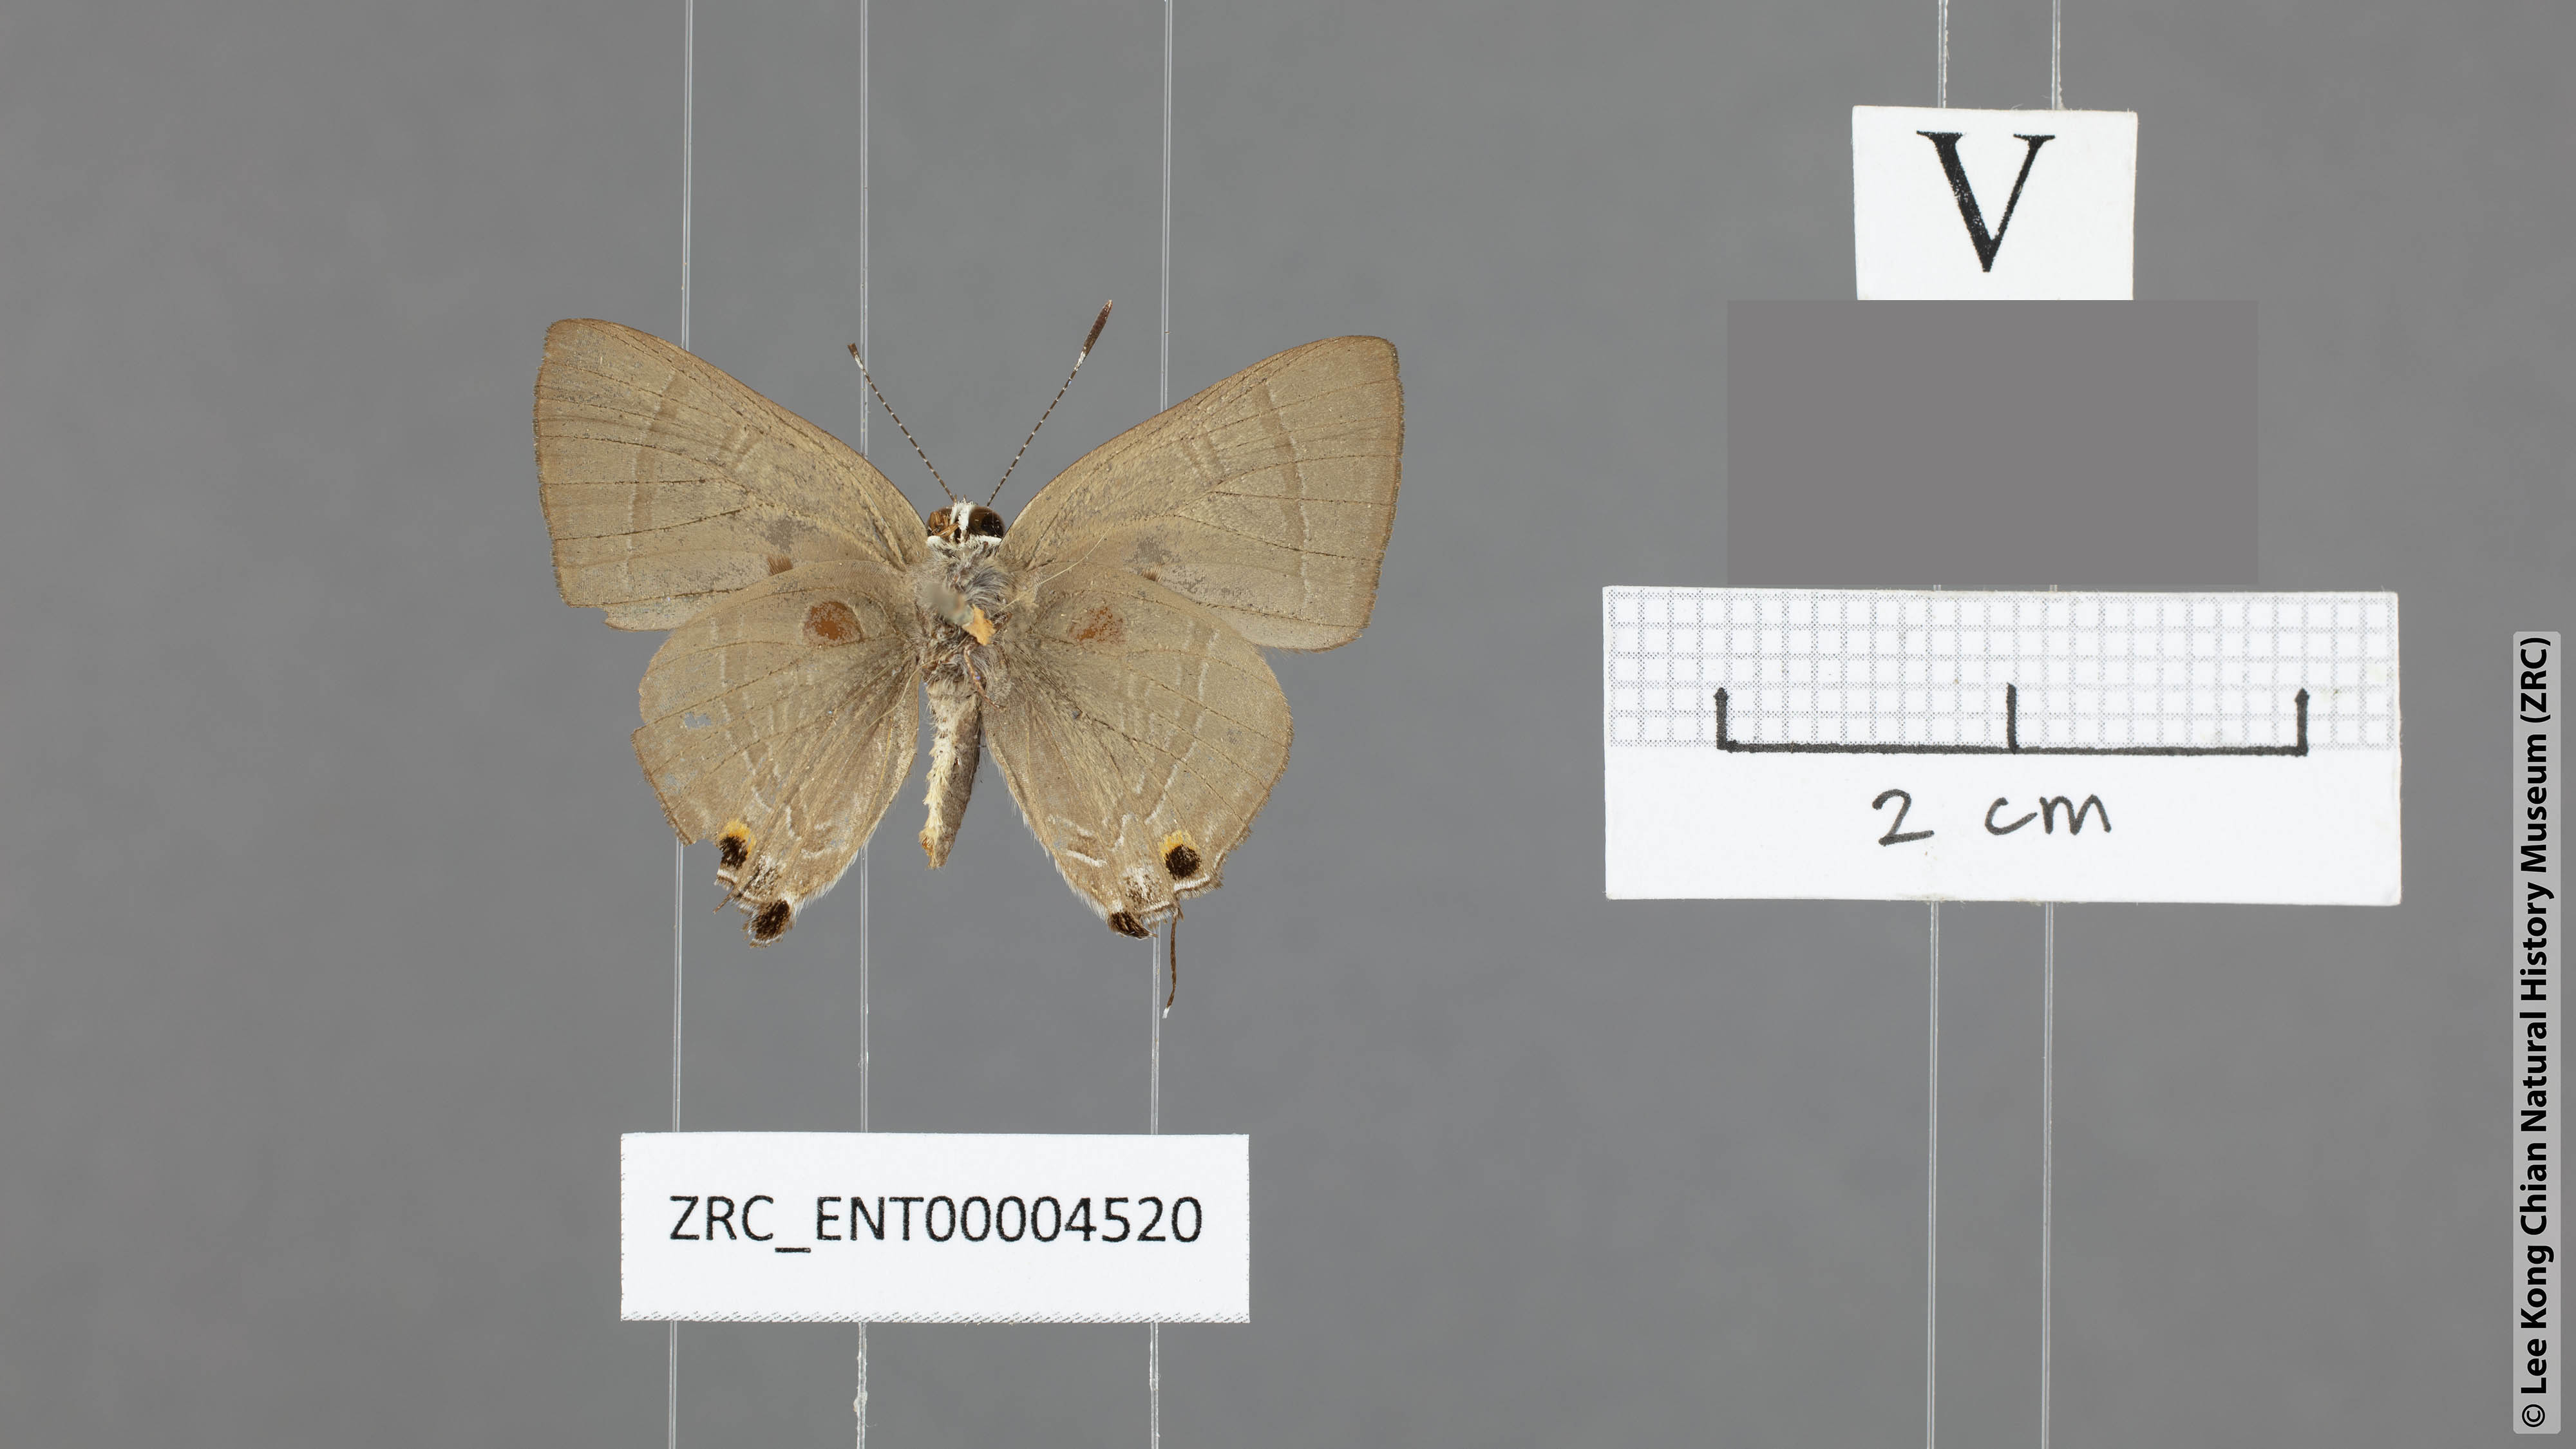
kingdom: Animalia
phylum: Arthropoda
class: Insecta
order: Lepidoptera
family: Lycaenidae
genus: Rapala
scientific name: Rapala scintilla
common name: Scarce slate flash
